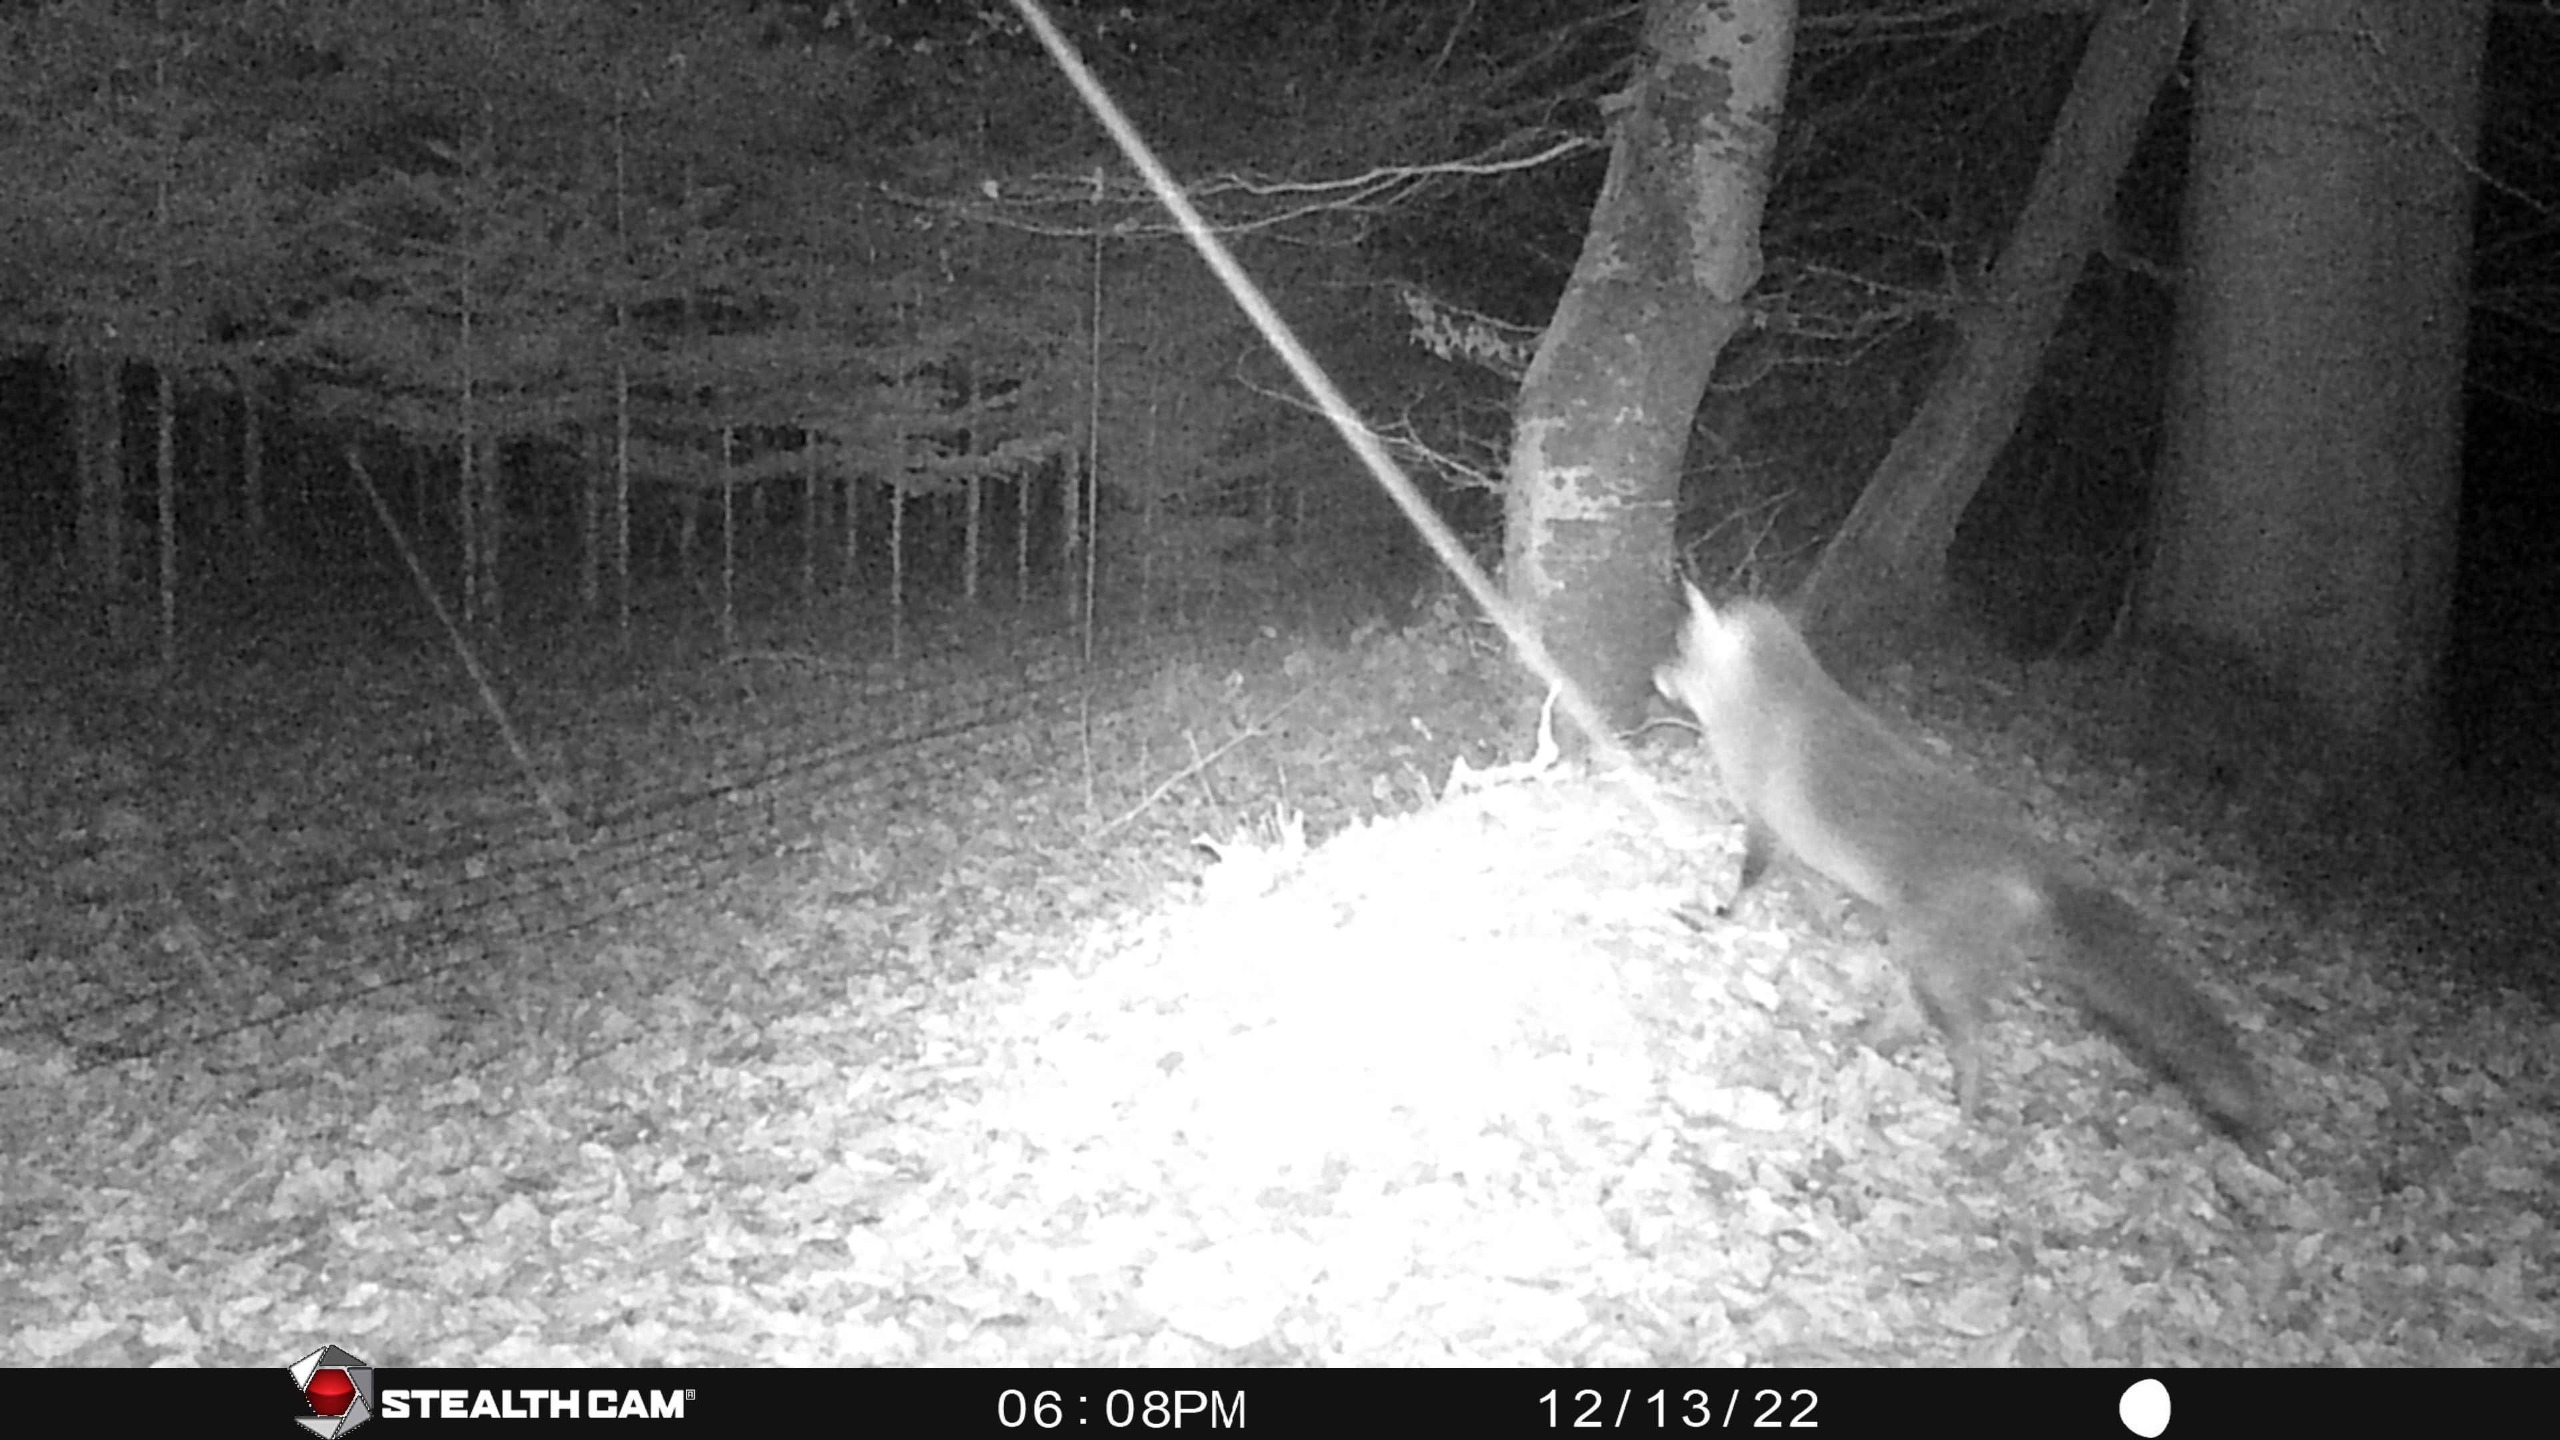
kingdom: Animalia
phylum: Chordata
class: Mammalia
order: Carnivora
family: Canidae
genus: Vulpes
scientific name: Vulpes vulpes
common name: Ræv
